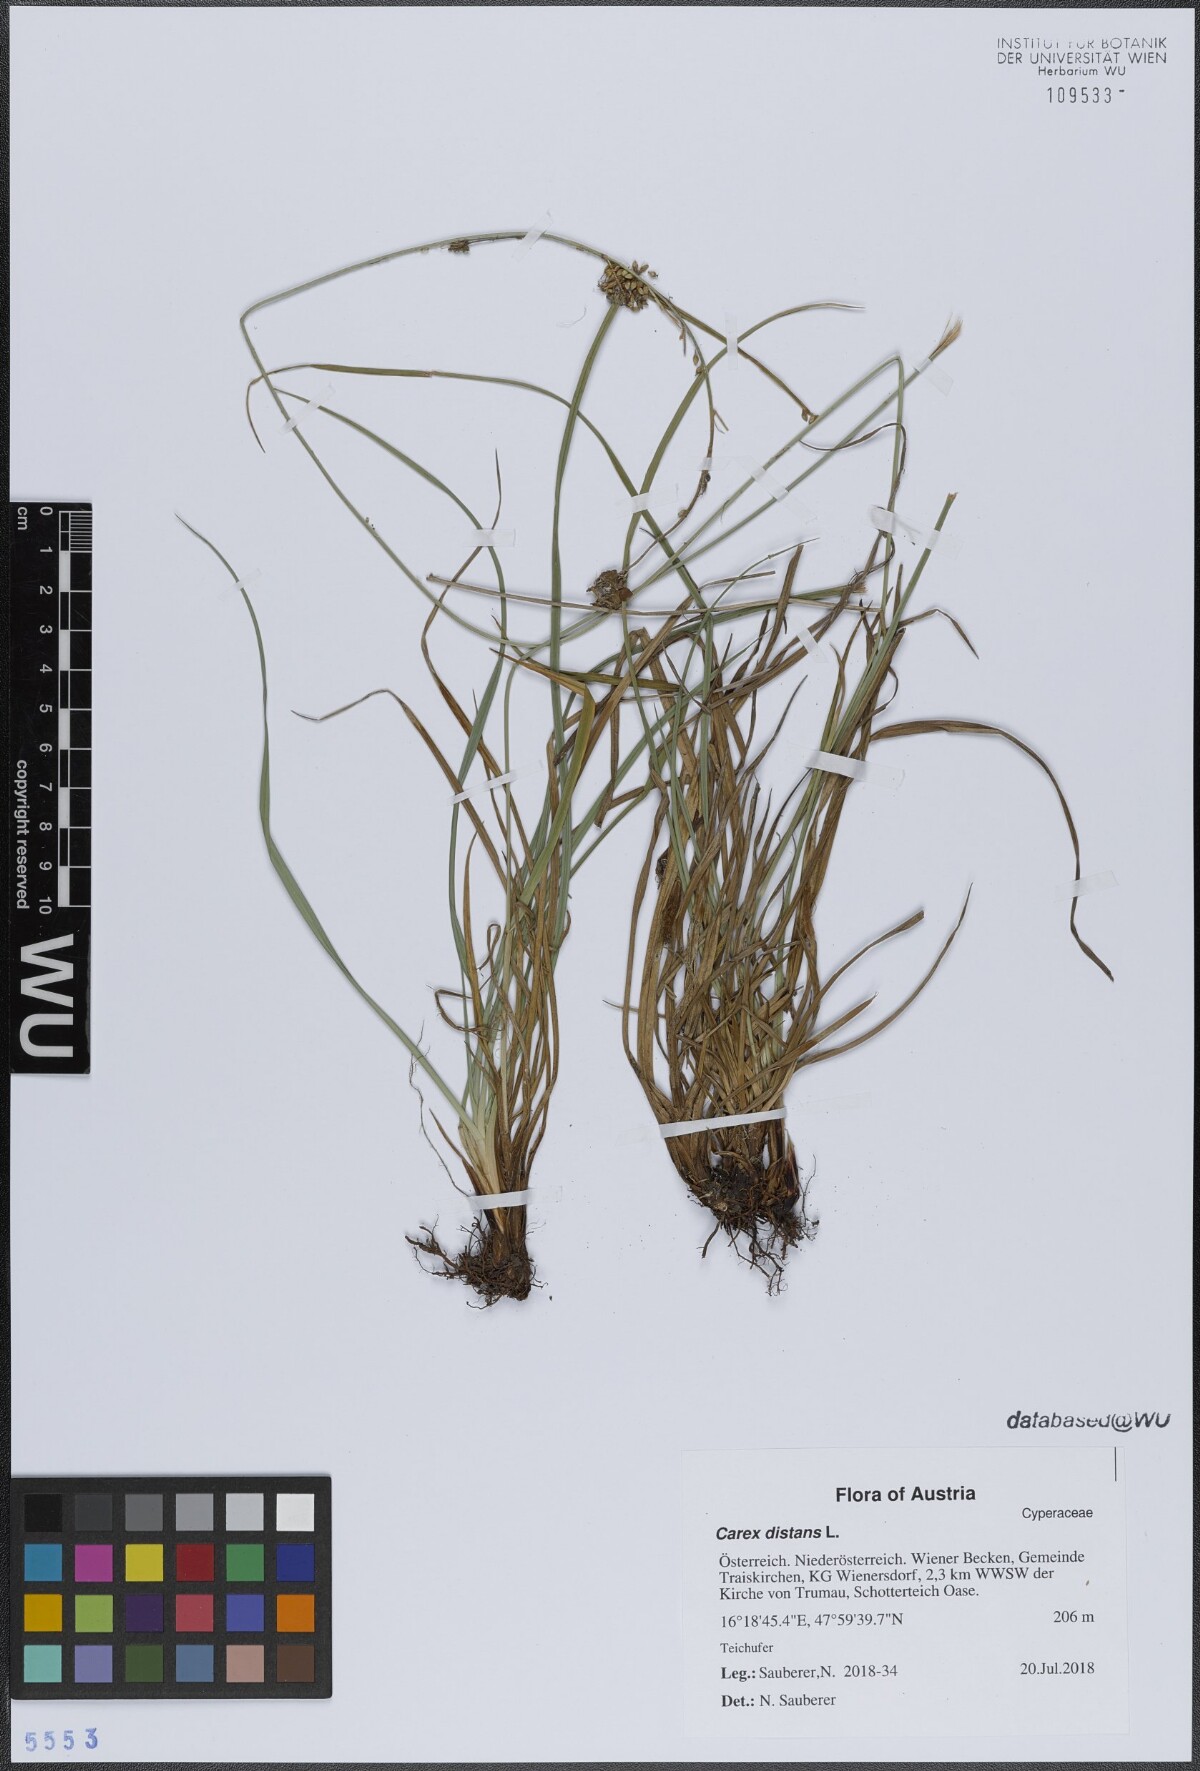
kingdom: Plantae
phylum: Tracheophyta
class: Liliopsida
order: Poales
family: Cyperaceae
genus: Carex
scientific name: Carex distans
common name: Distant sedge
